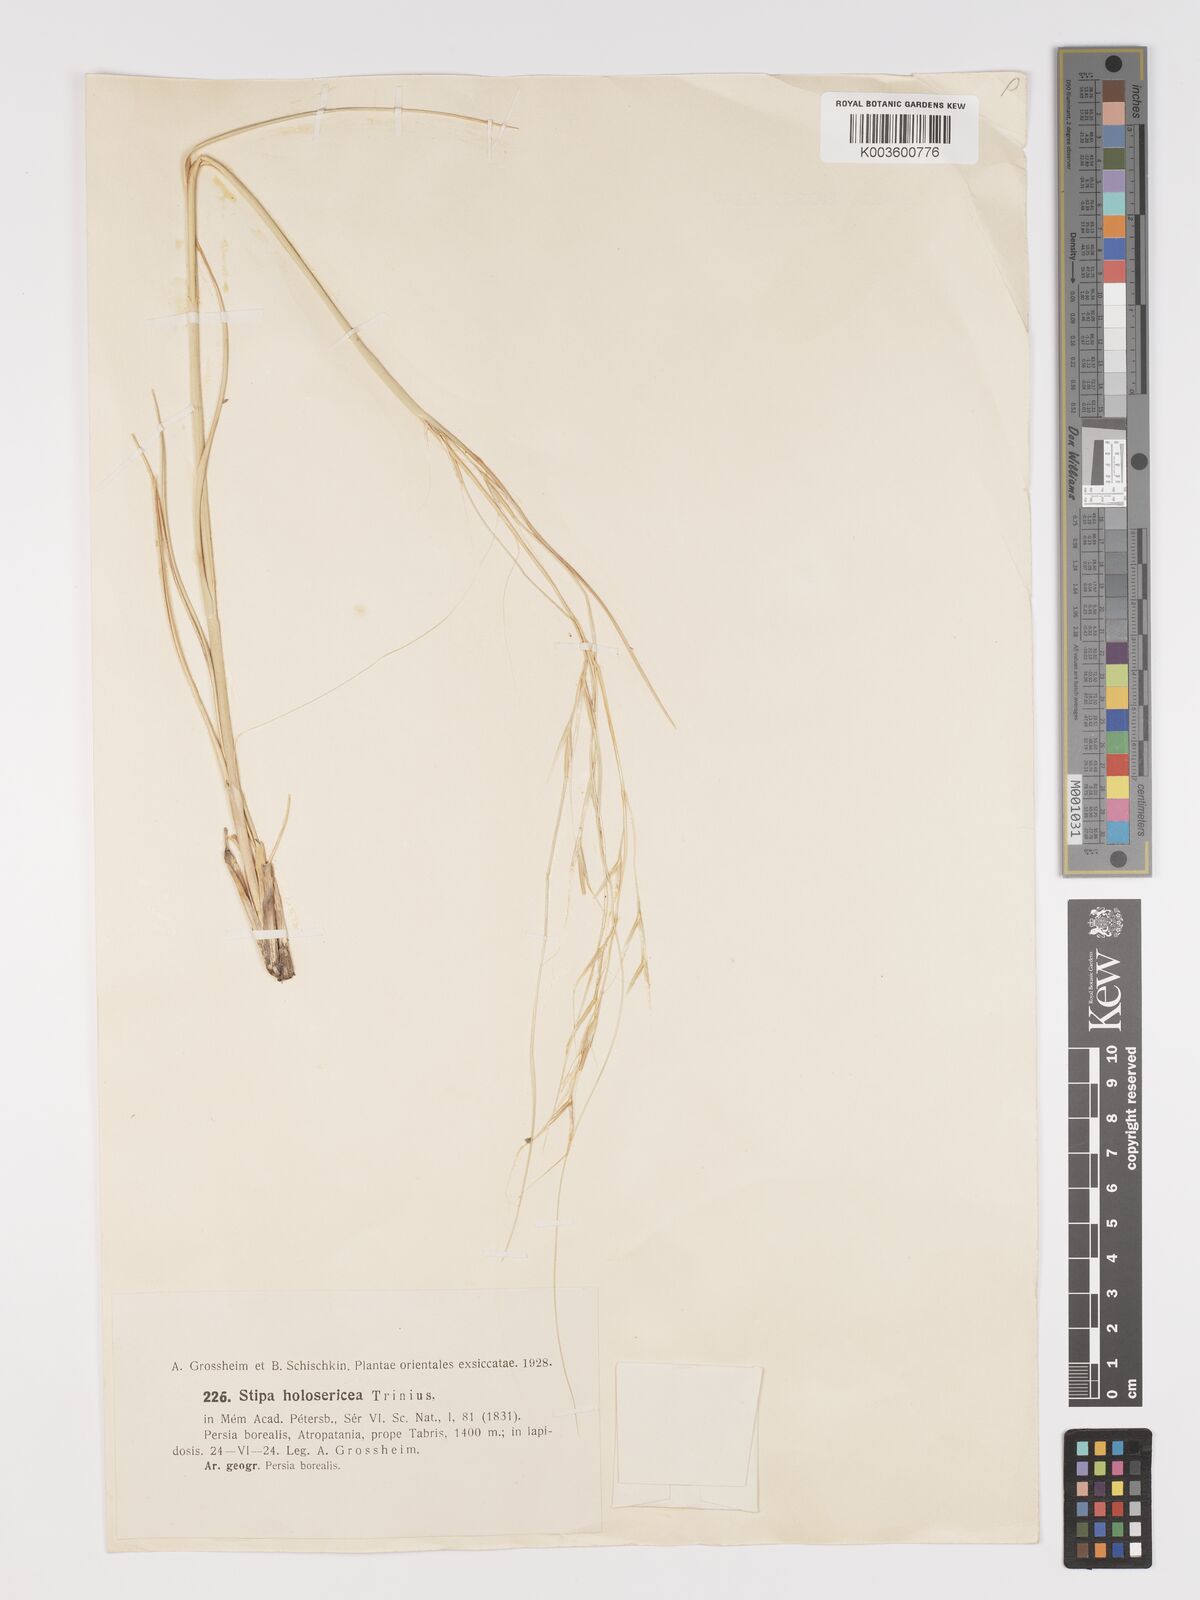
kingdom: Plantae
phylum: Tracheophyta
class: Liliopsida
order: Poales
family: Poaceae
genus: Stipa
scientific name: Stipa lagascae
